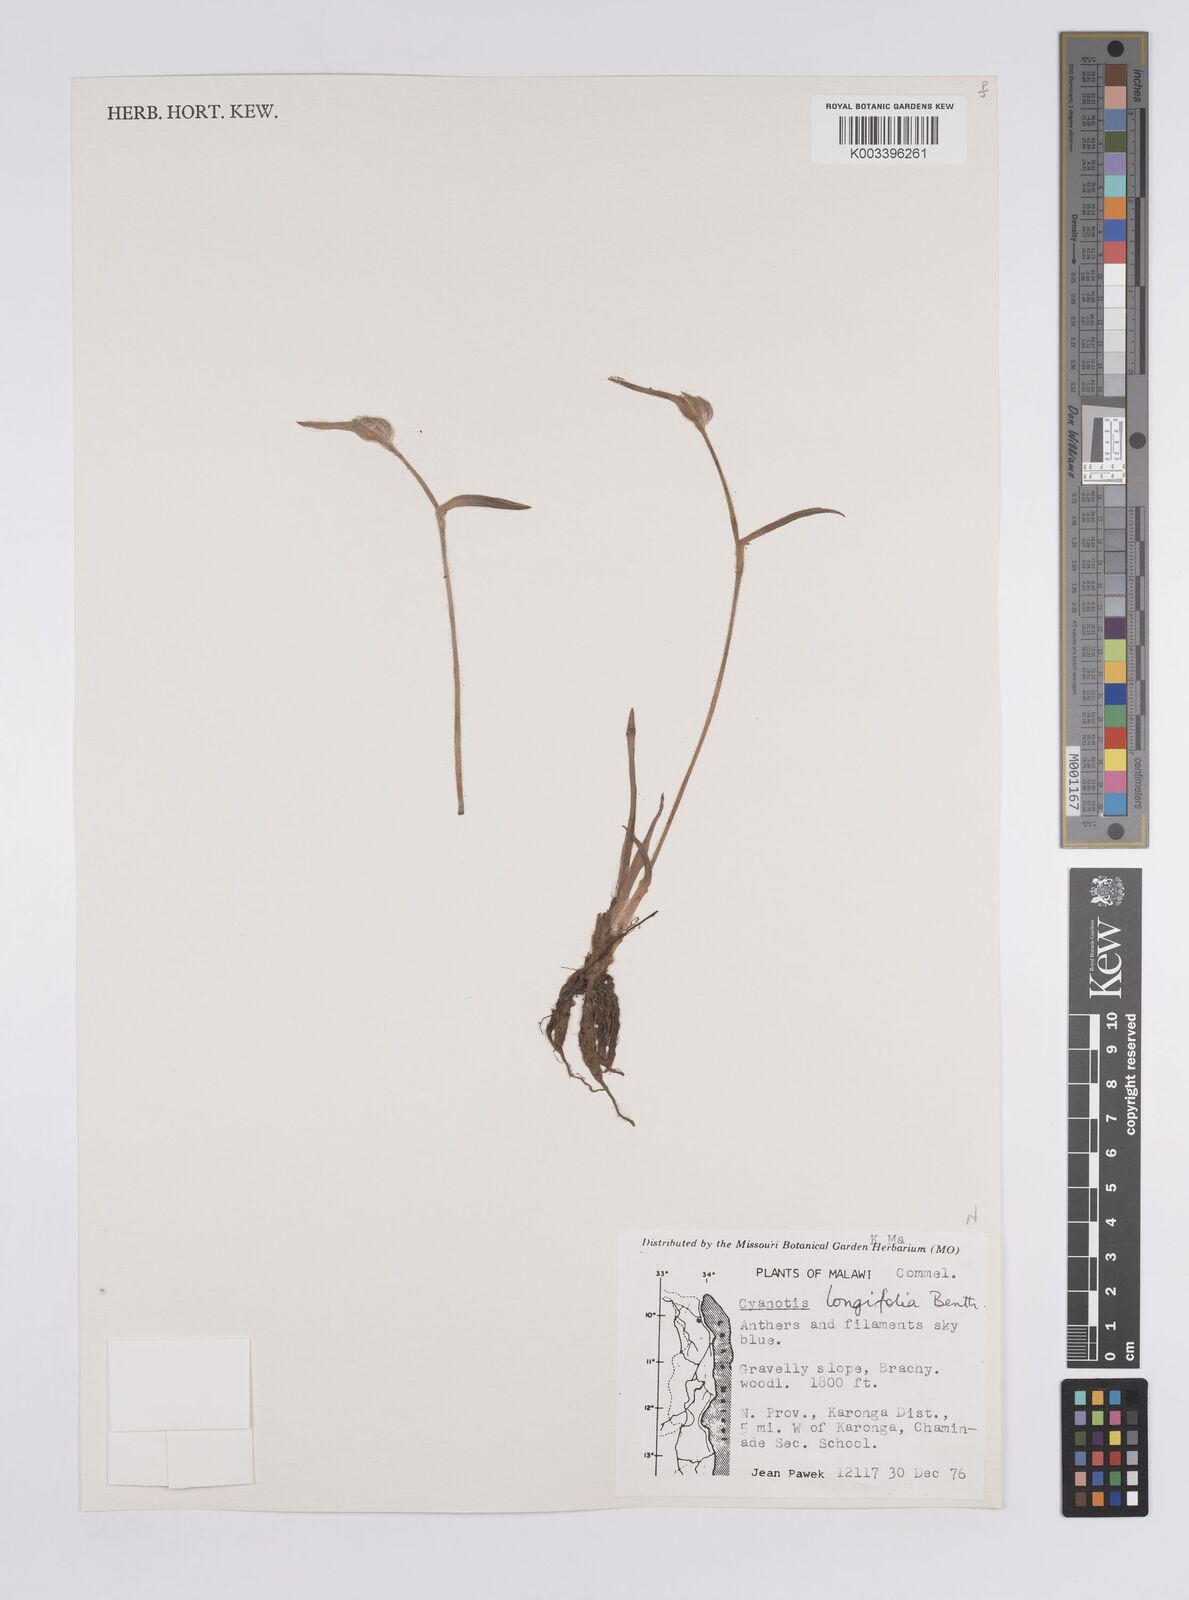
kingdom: Plantae
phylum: Tracheophyta
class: Liliopsida
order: Commelinales
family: Commelinaceae
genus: Cyanotis
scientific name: Cyanotis longifolia
